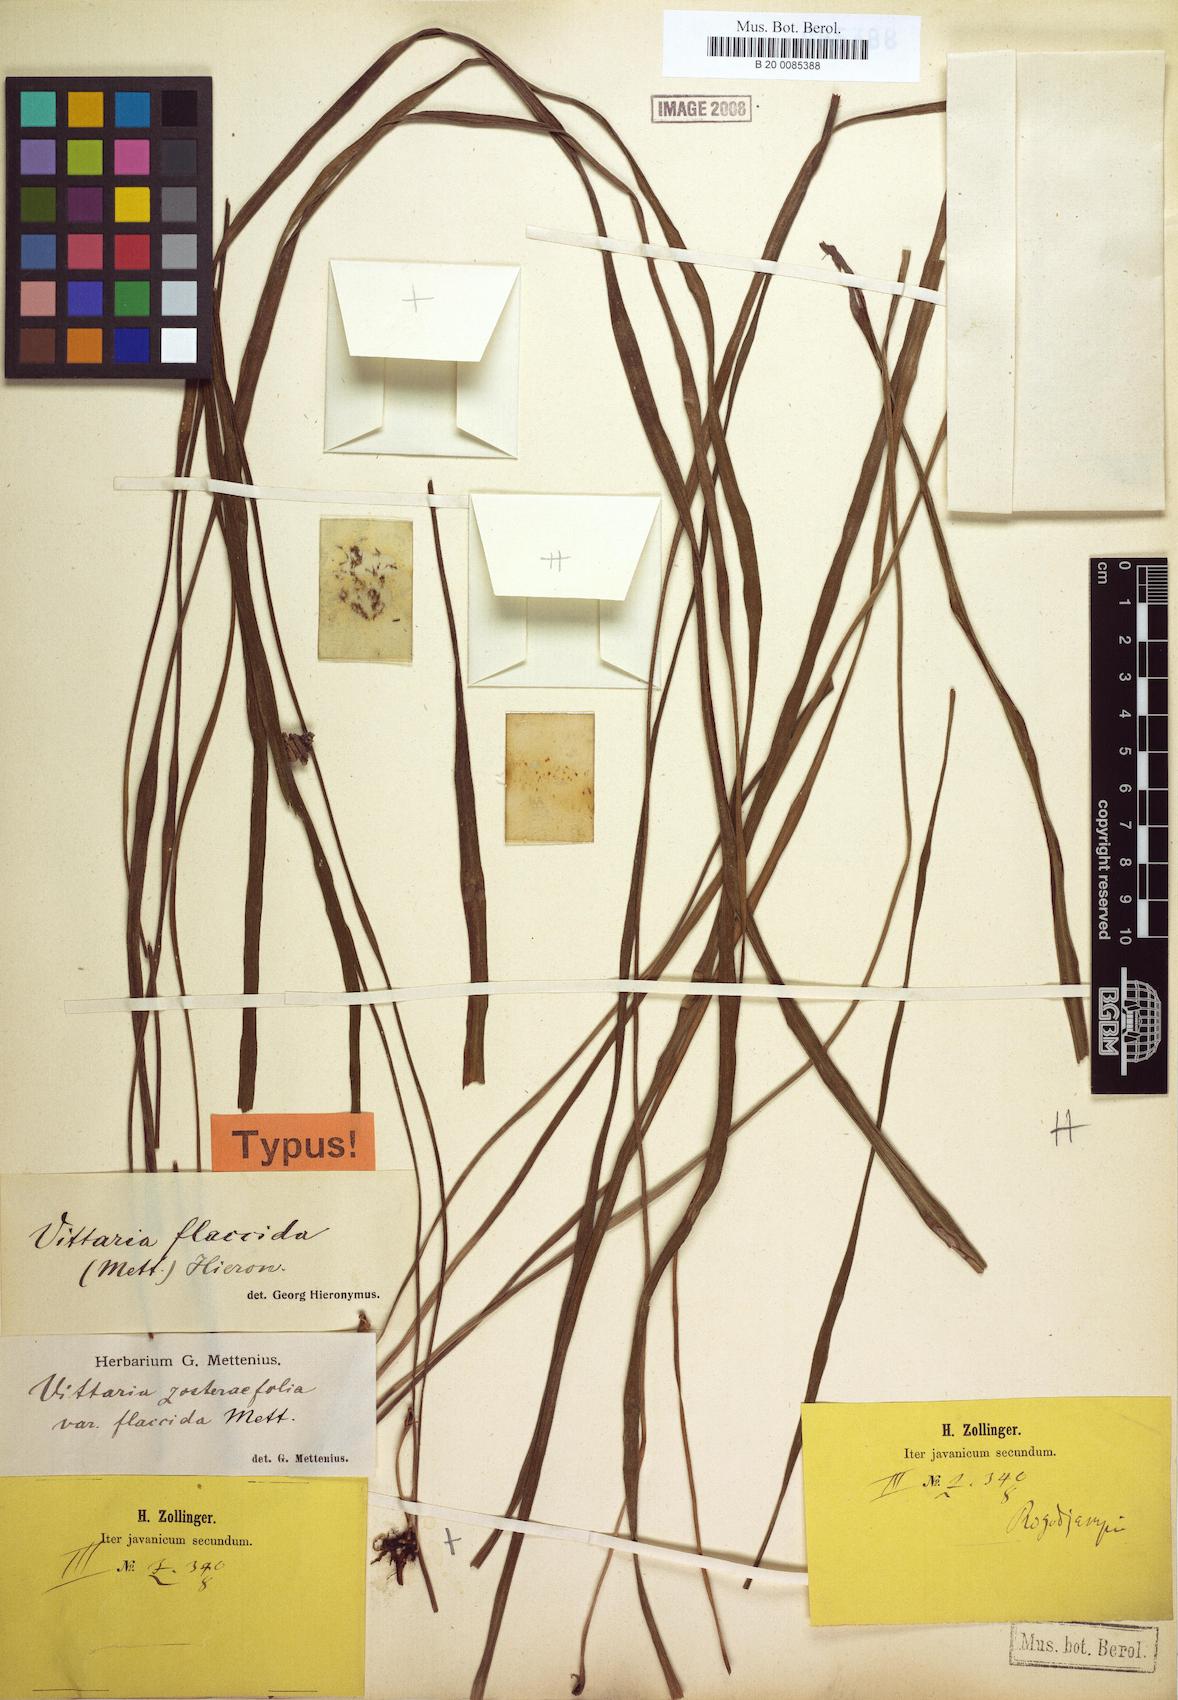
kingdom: Plantae
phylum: Tracheophyta
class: Polypodiopsida
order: Polypodiales
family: Pteridaceae
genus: Haplopteris
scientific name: Haplopteris elongata
